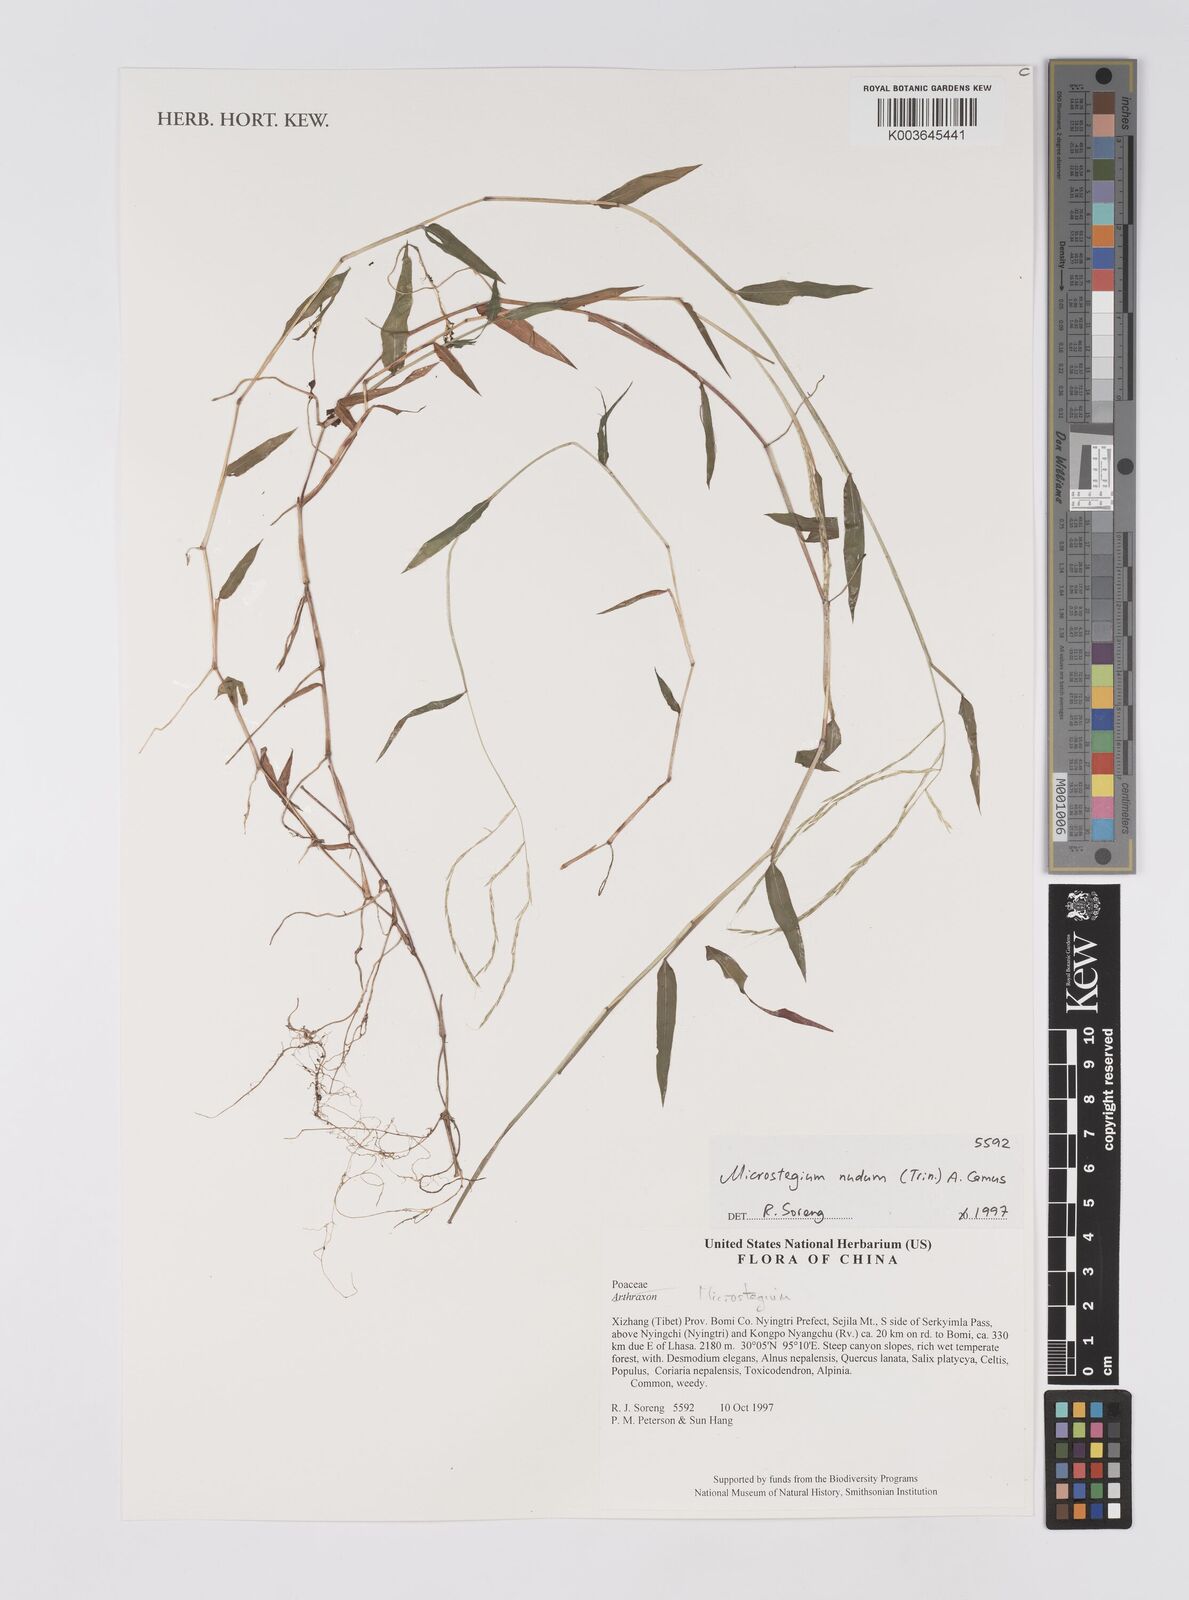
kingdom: Plantae
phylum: Tracheophyta
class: Liliopsida
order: Poales
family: Poaceae
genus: Microstegium
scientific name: Microstegium nudum
